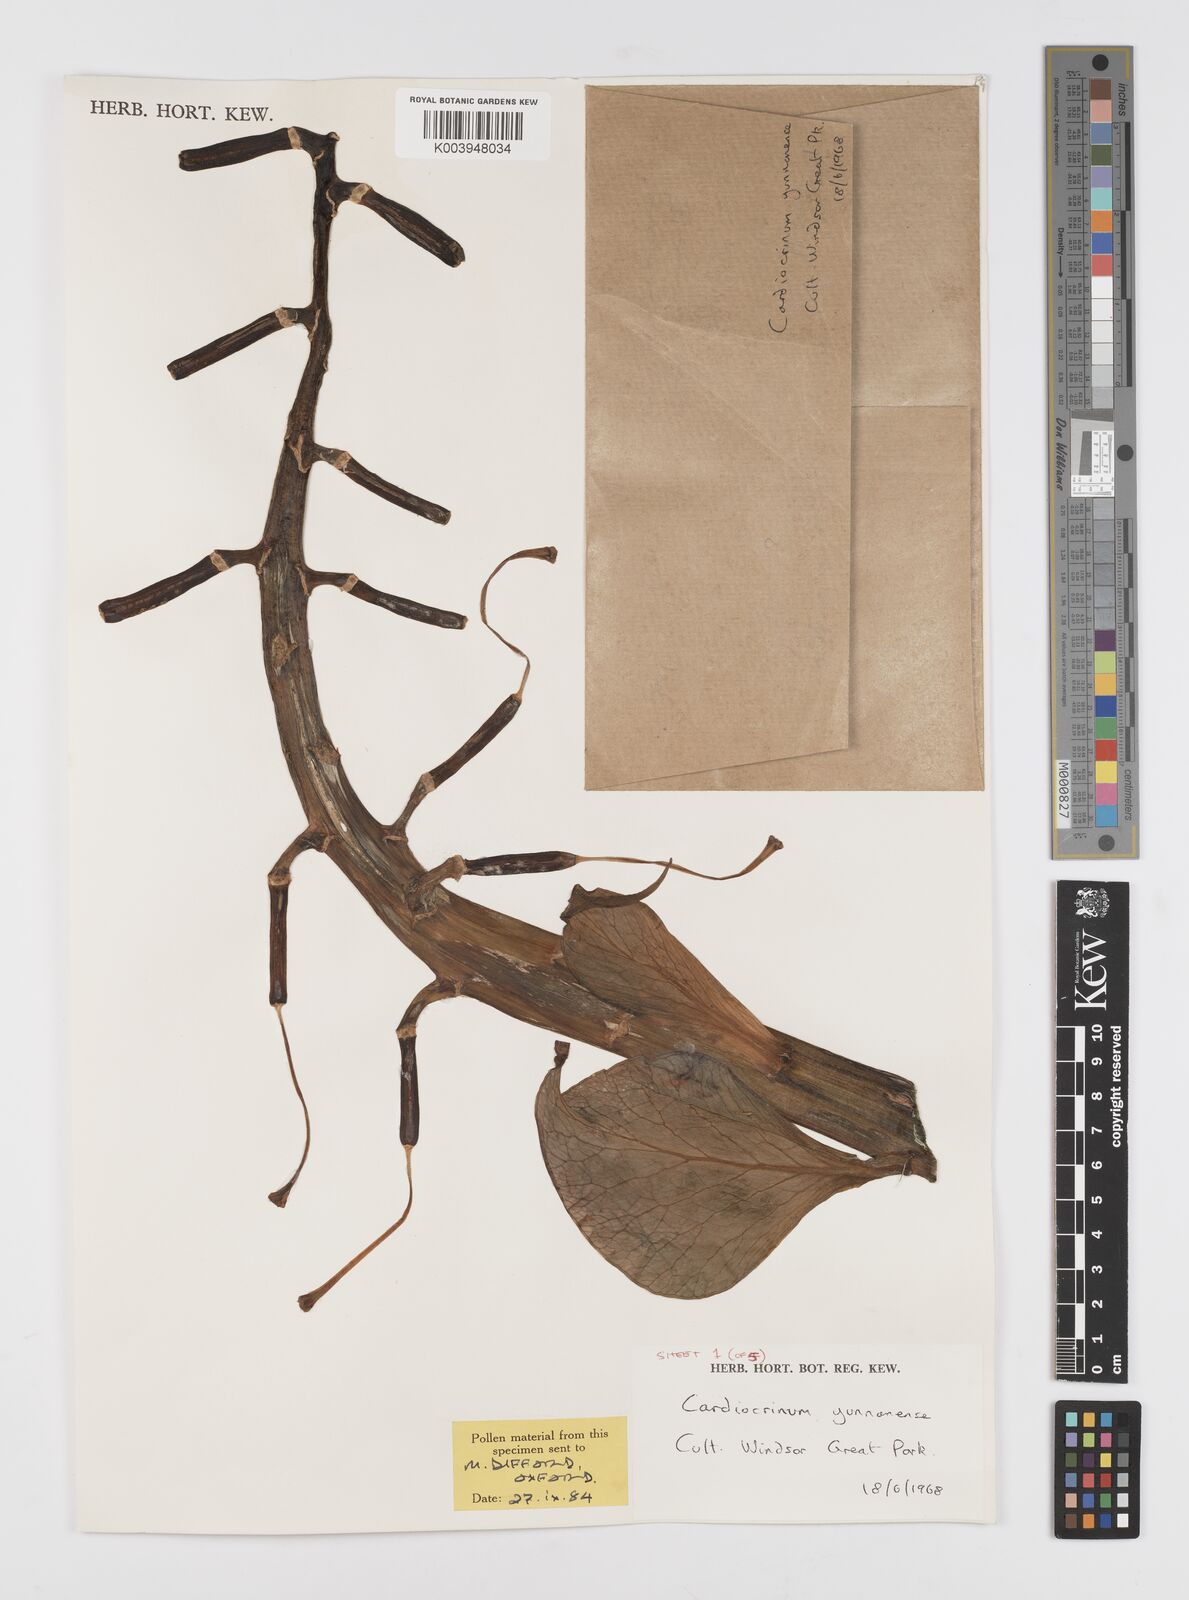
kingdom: Plantae
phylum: Tracheophyta
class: Liliopsida
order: Liliales
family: Liliaceae
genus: Cardiocrinum
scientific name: Cardiocrinum
